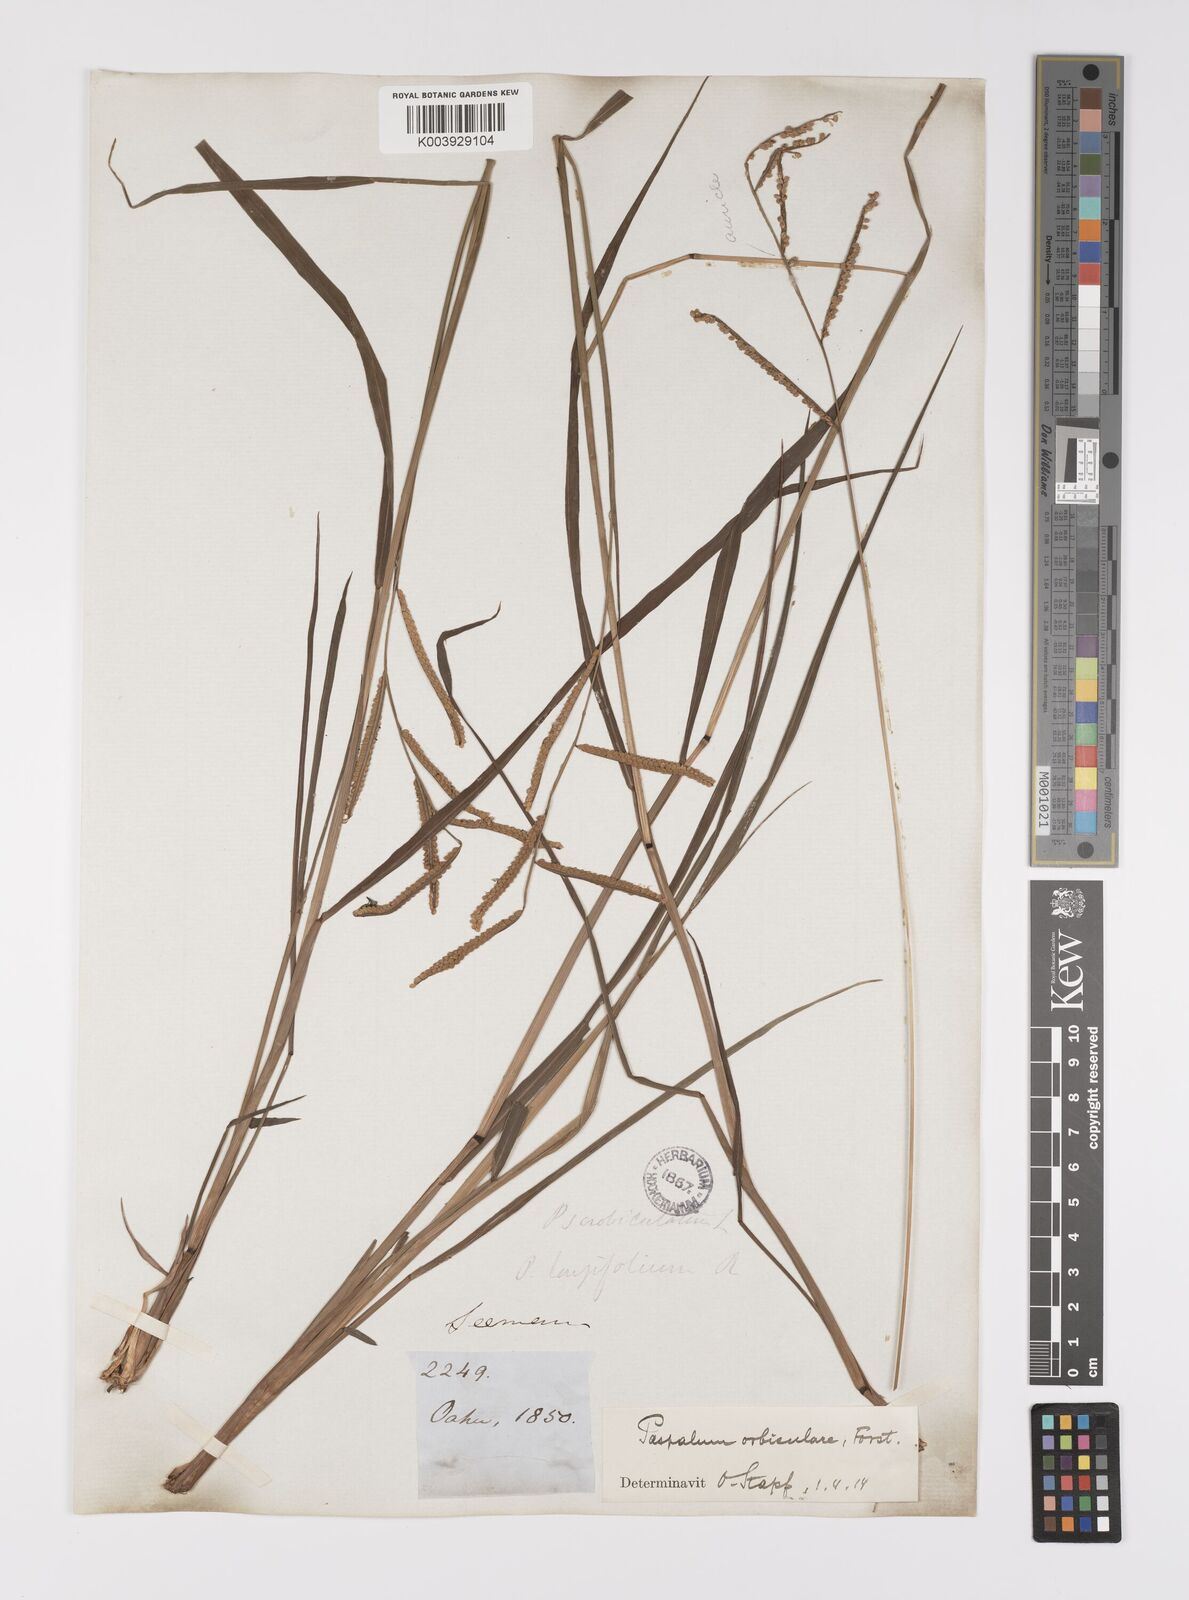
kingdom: Plantae
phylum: Tracheophyta
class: Liliopsida
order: Poales
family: Poaceae
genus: Paspalum
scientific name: Paspalum scrobiculatum
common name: Kodo millet
